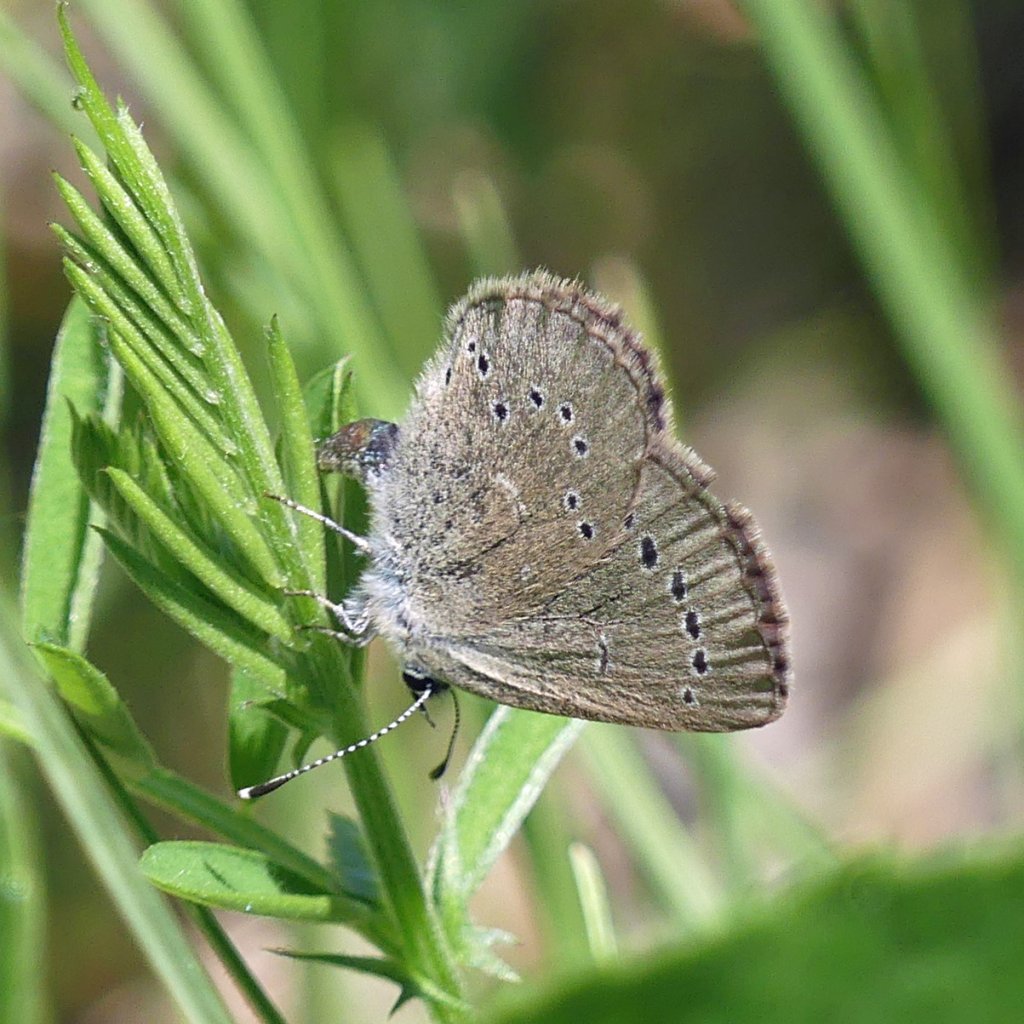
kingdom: Animalia
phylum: Arthropoda
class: Insecta
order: Lepidoptera
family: Lycaenidae
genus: Glaucopsyche
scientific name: Glaucopsyche lygdamus
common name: Silvery Blue
